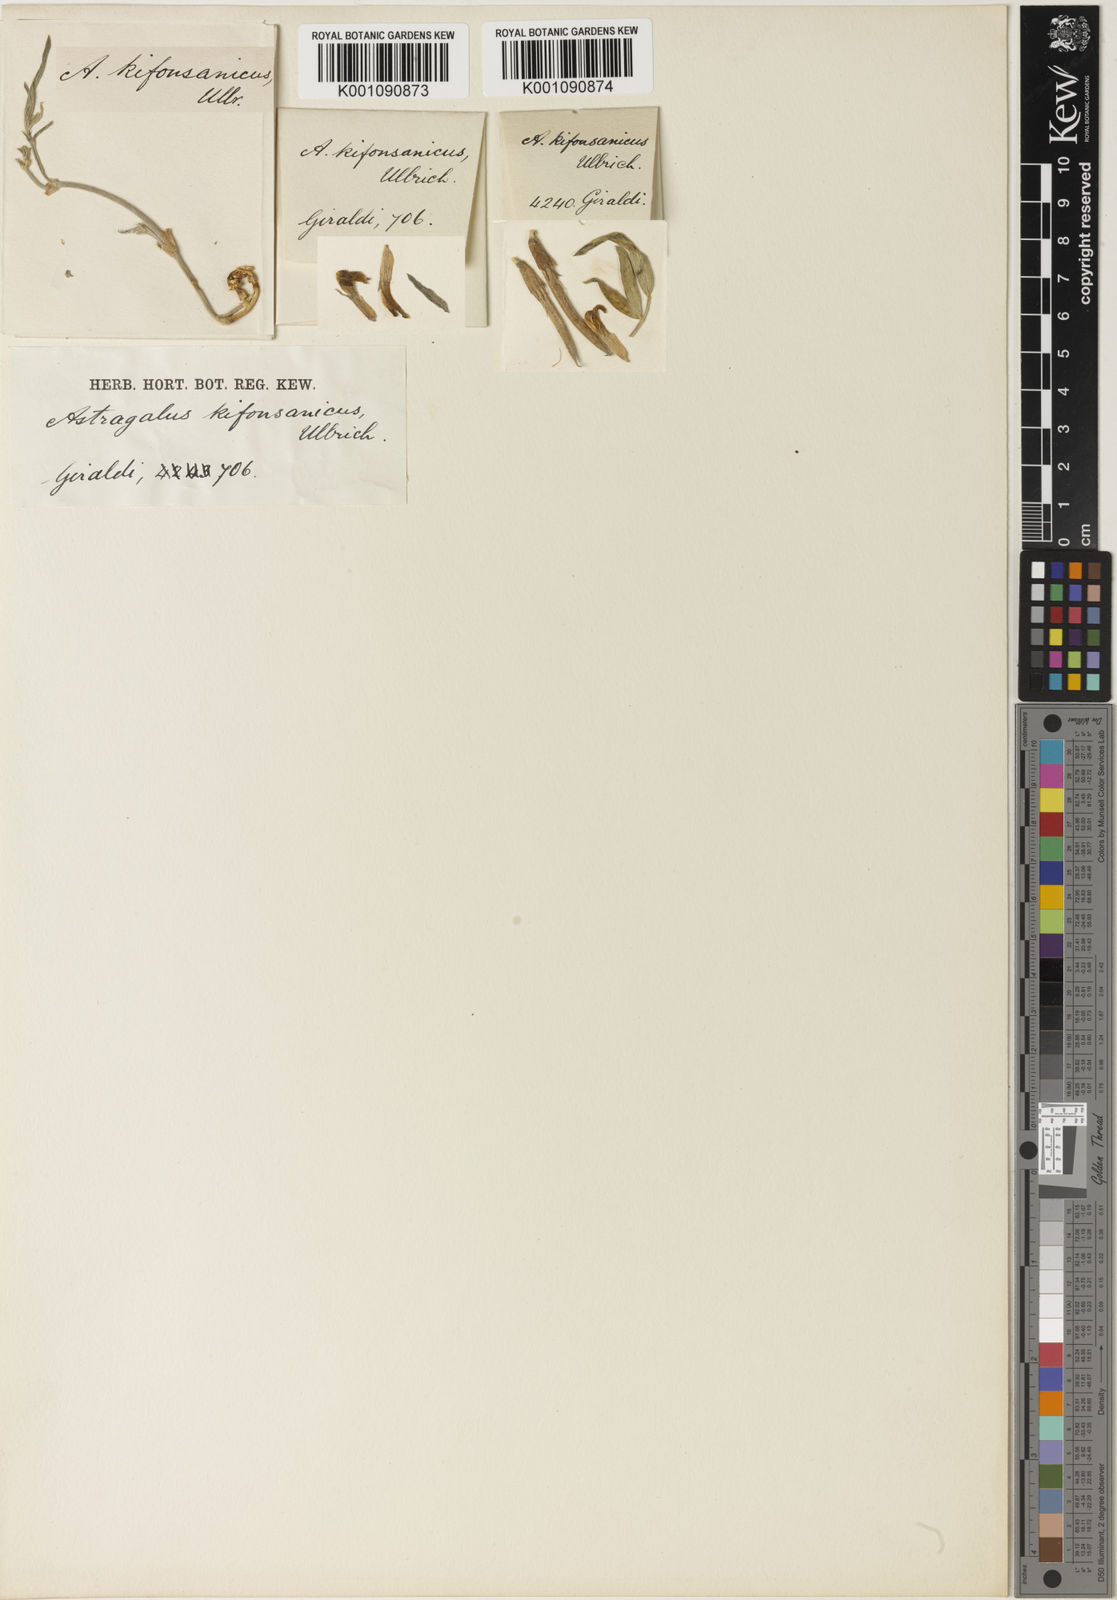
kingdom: Plantae
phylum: Tracheophyta
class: Magnoliopsida
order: Fabales
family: Fabaceae
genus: Astragalus
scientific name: Astragalus
